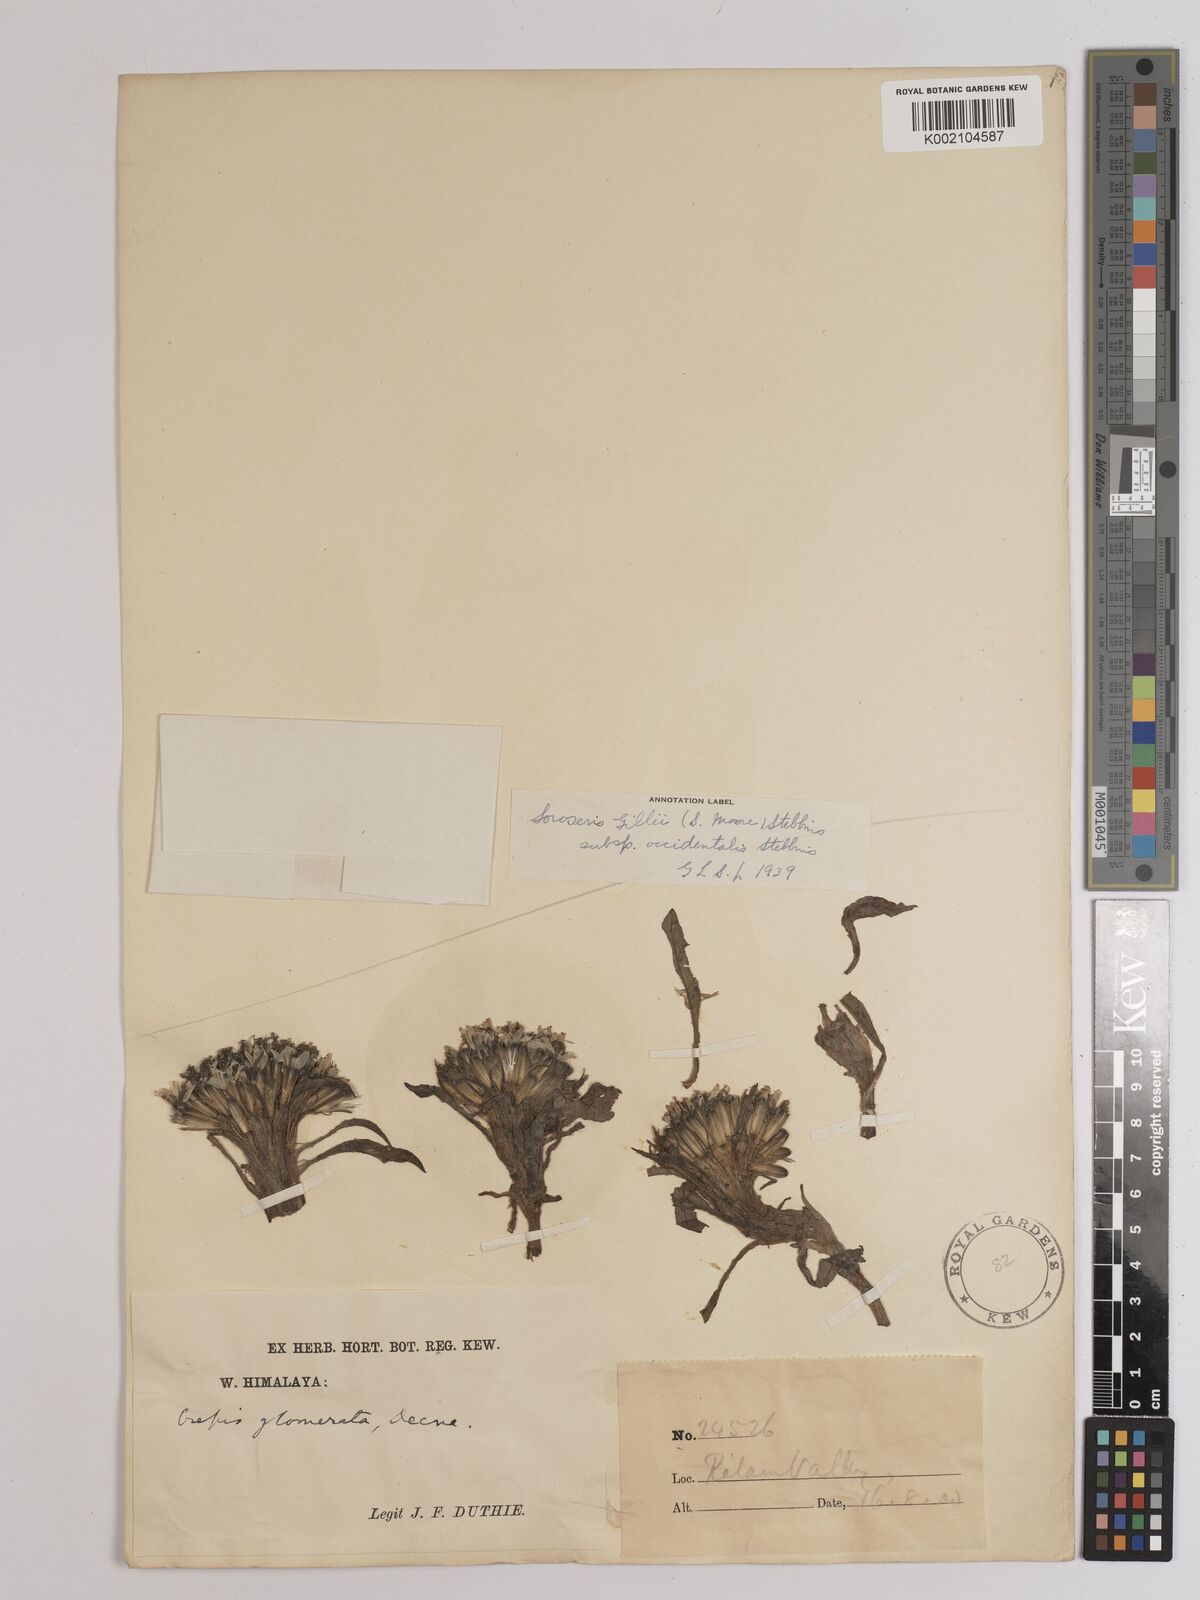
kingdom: Plantae
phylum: Tracheophyta
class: Magnoliopsida
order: Asterales
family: Asteraceae
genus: Soroseris
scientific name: Soroseris pumila
